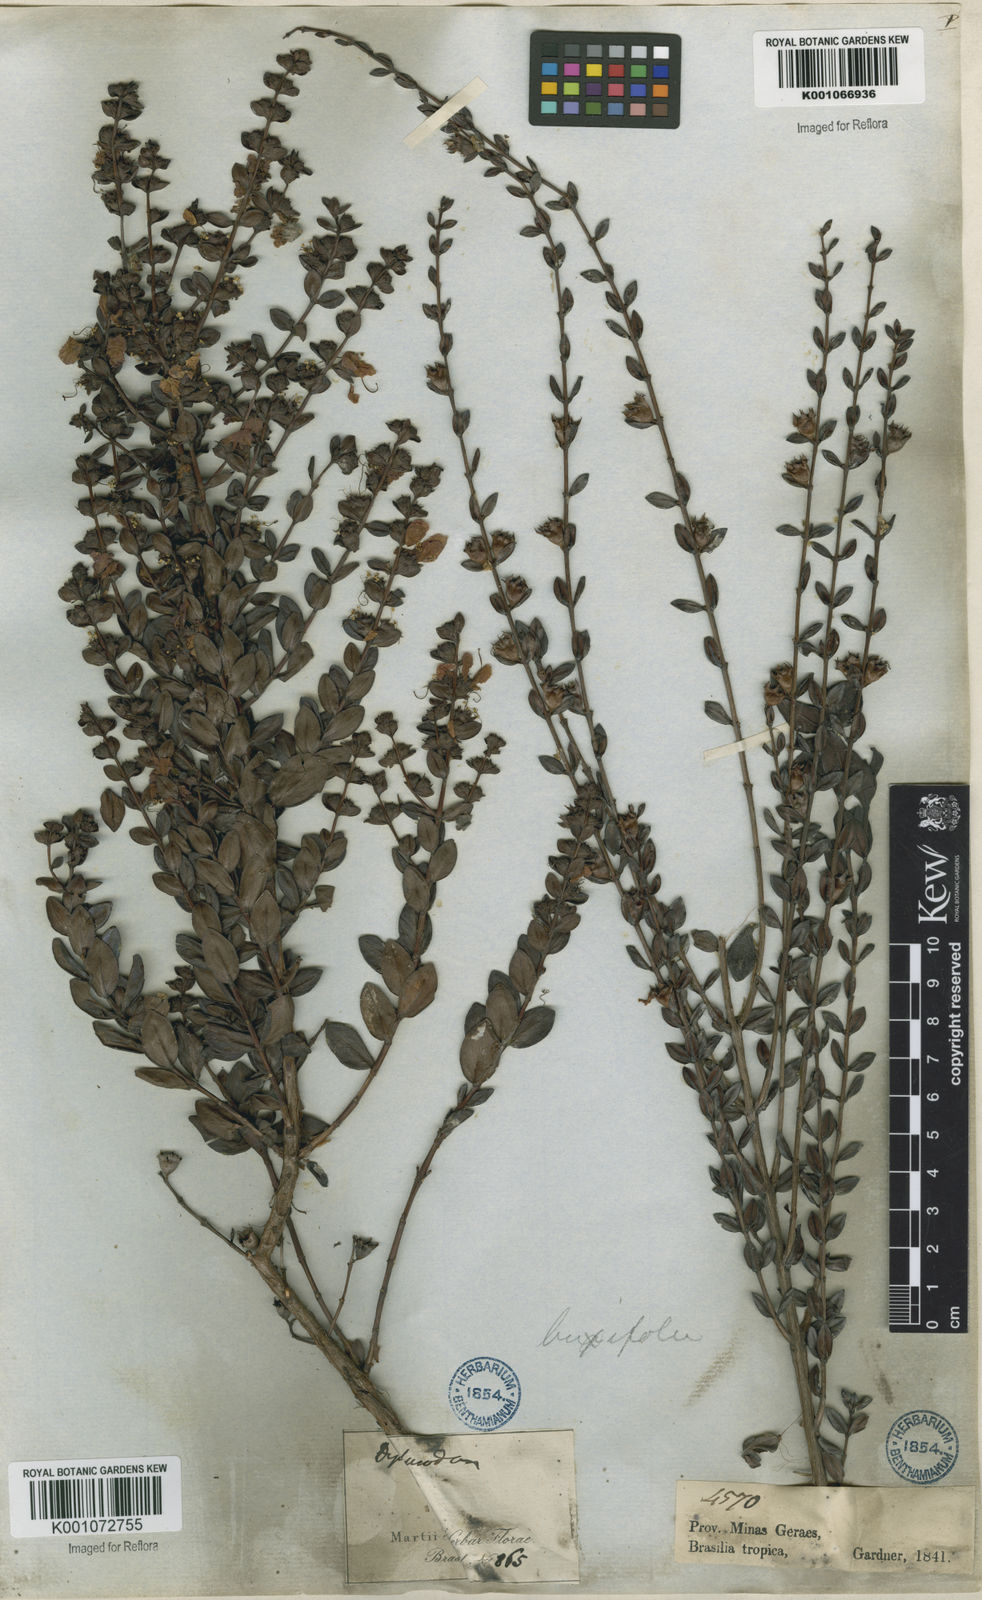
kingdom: Plantae
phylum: Tracheophyta
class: Magnoliopsida
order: Myrtales
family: Lythraceae
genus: Diplusodon
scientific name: Diplusodon buxifolius
